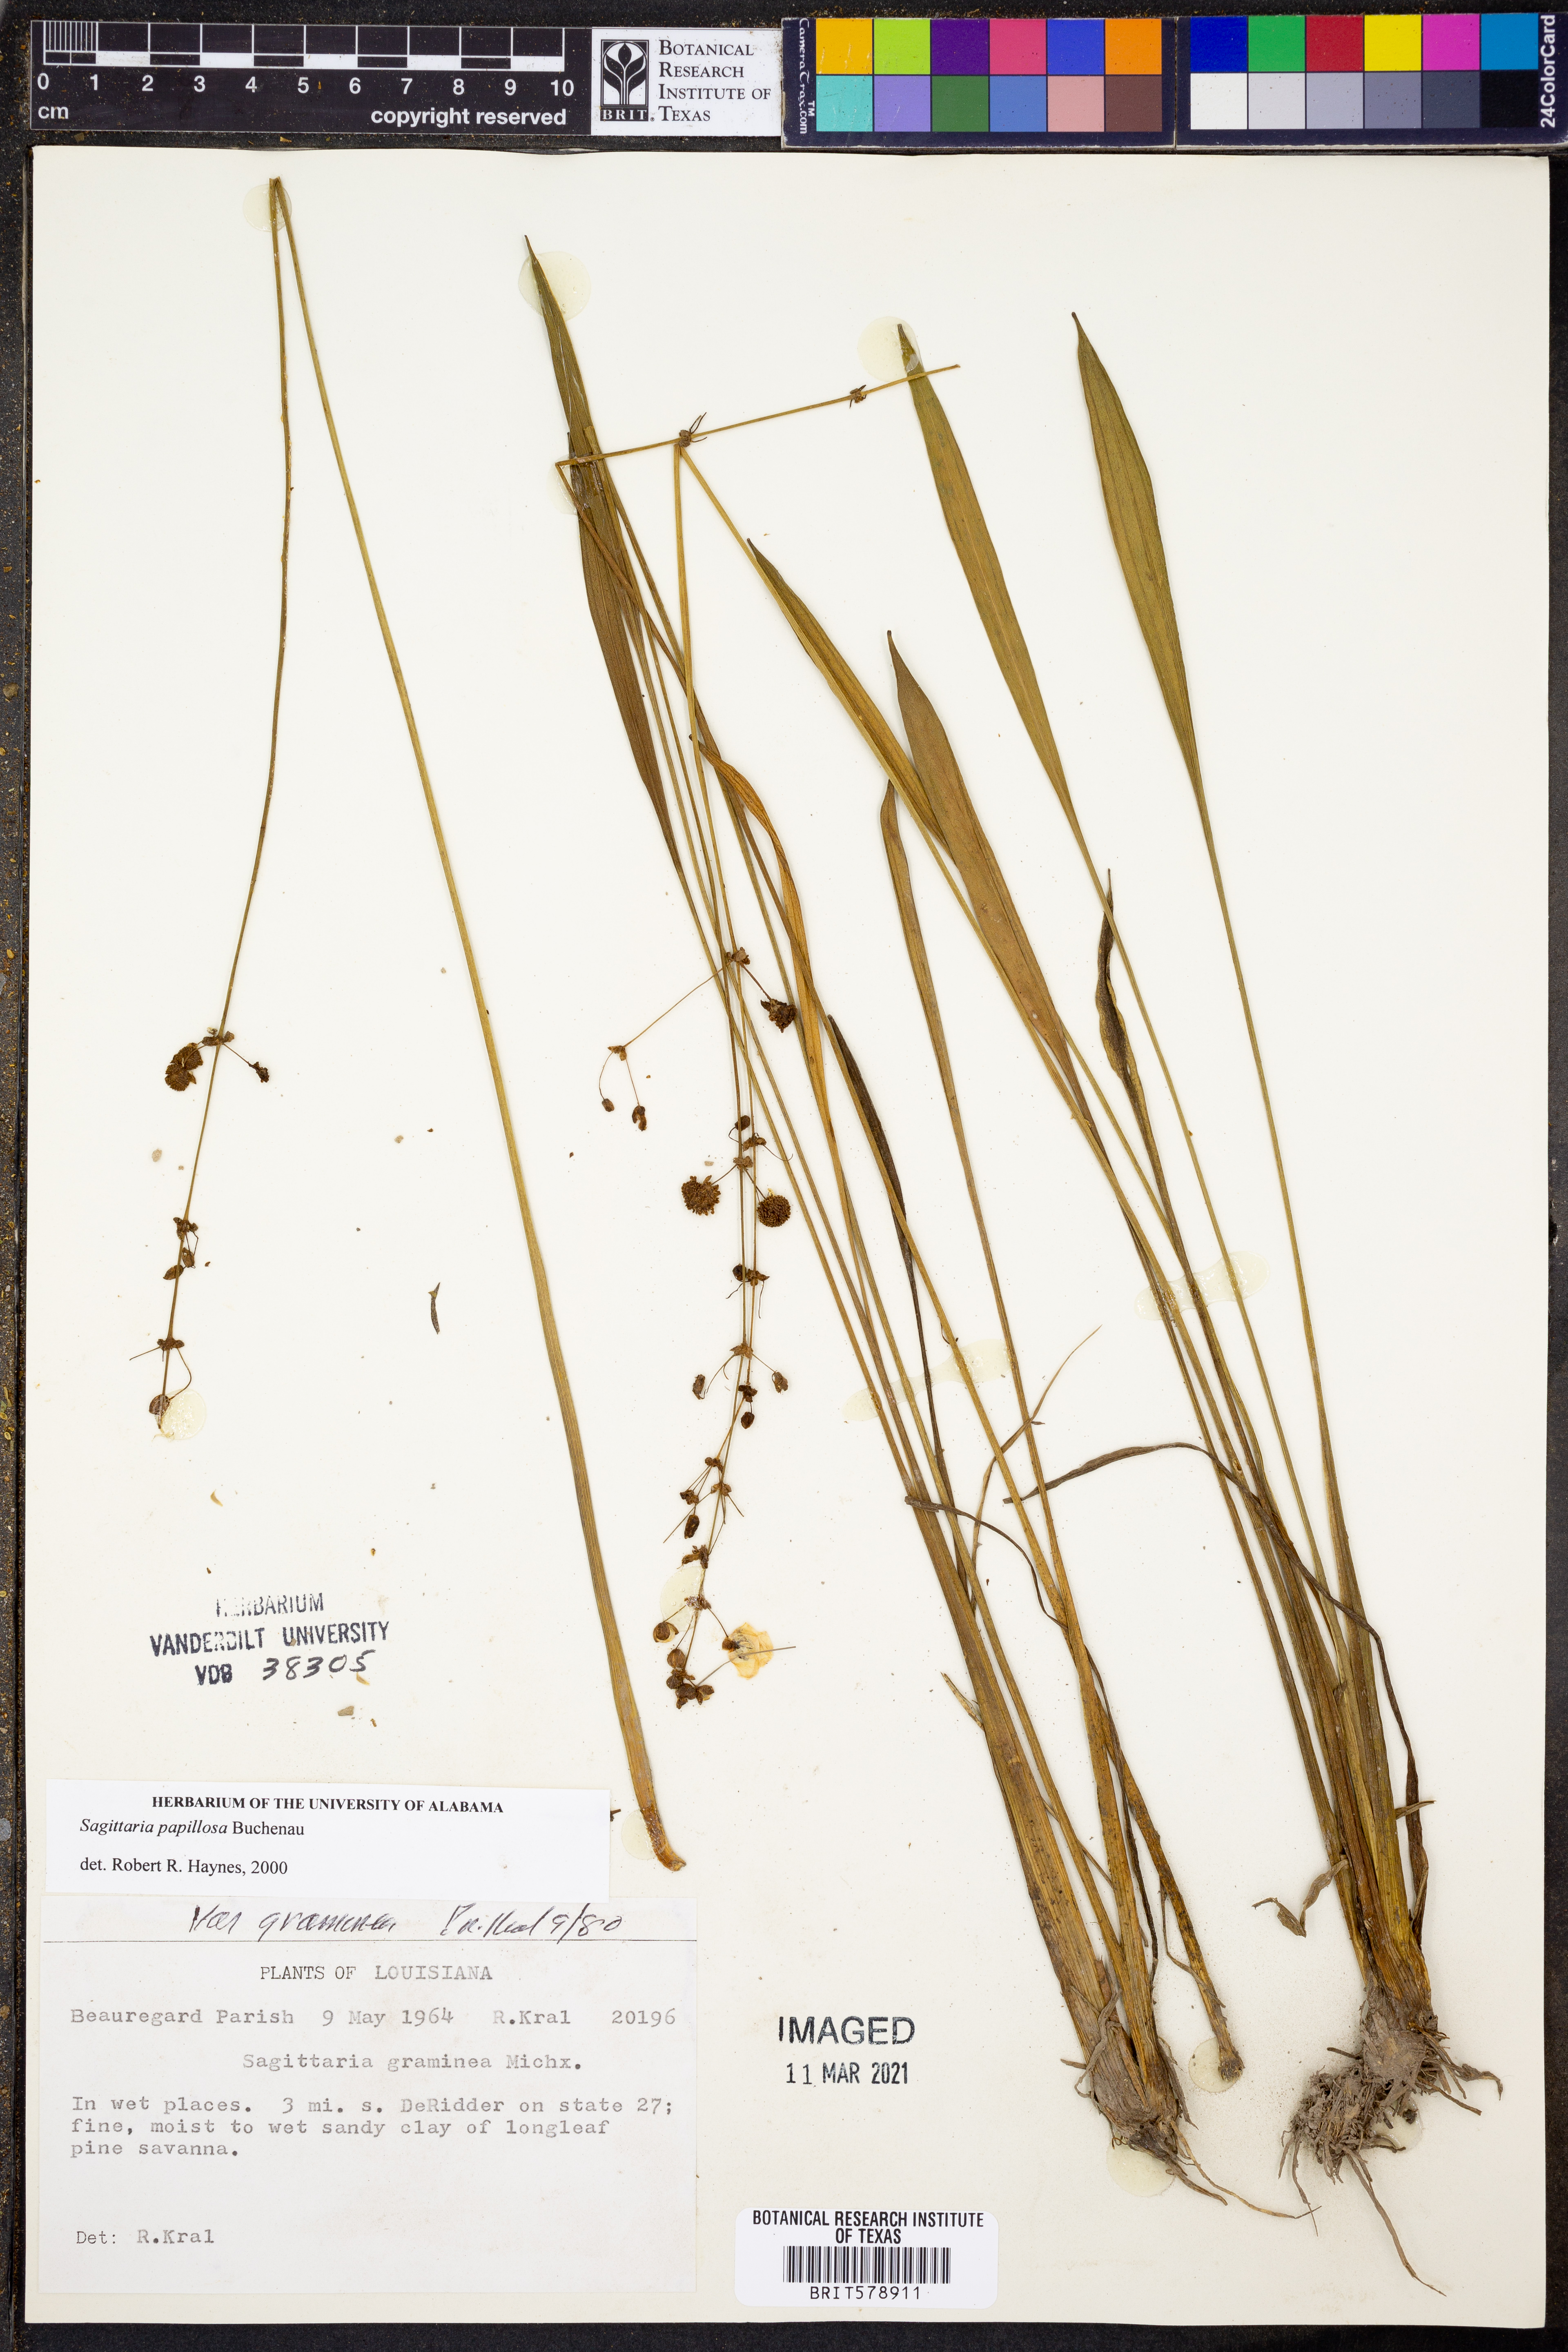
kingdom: Plantae
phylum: Tracheophyta
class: Liliopsida
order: Alismatales
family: Alismataceae
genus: Sagittaria
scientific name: Sagittaria papillosa
